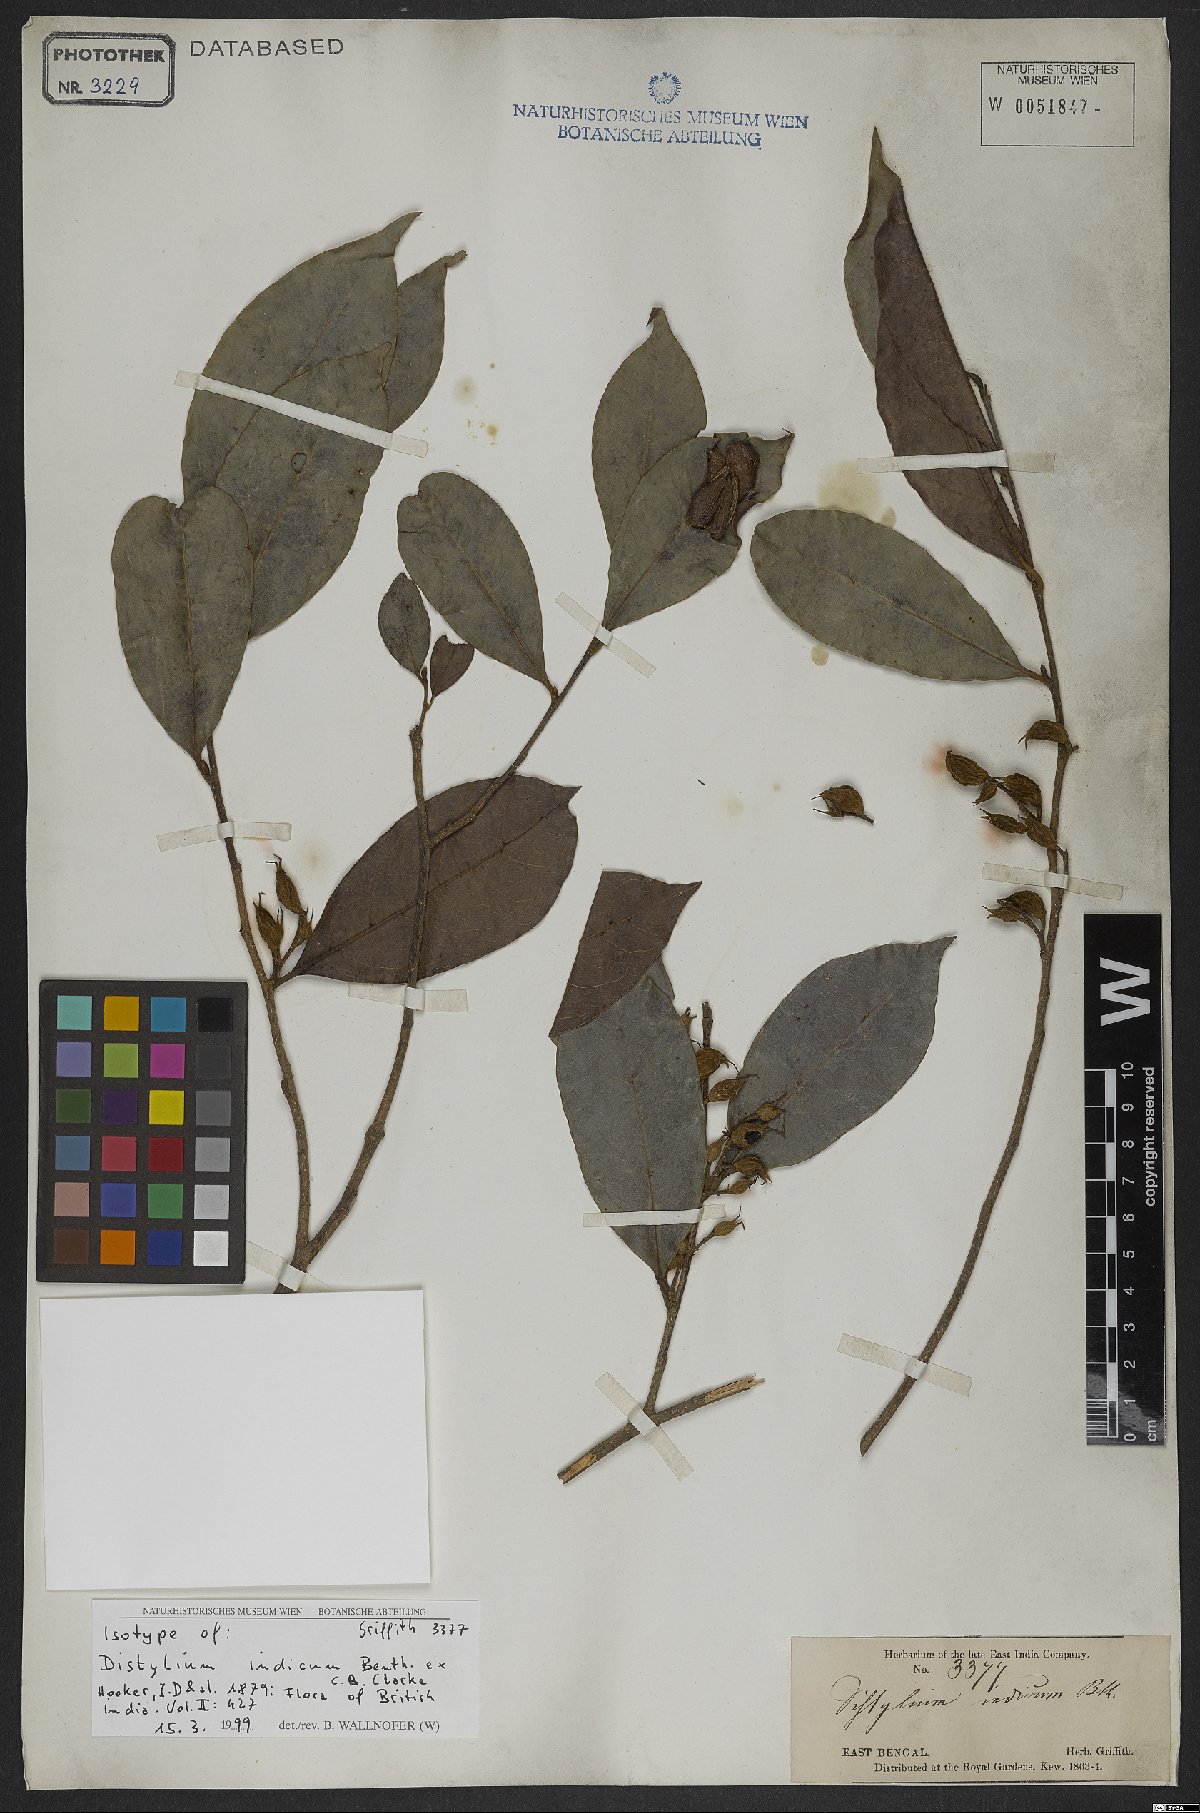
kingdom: Plantae
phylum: Tracheophyta
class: Magnoliopsida
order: Saxifragales
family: Hamamelidaceae
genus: Distylium
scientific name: Distylium indicum
